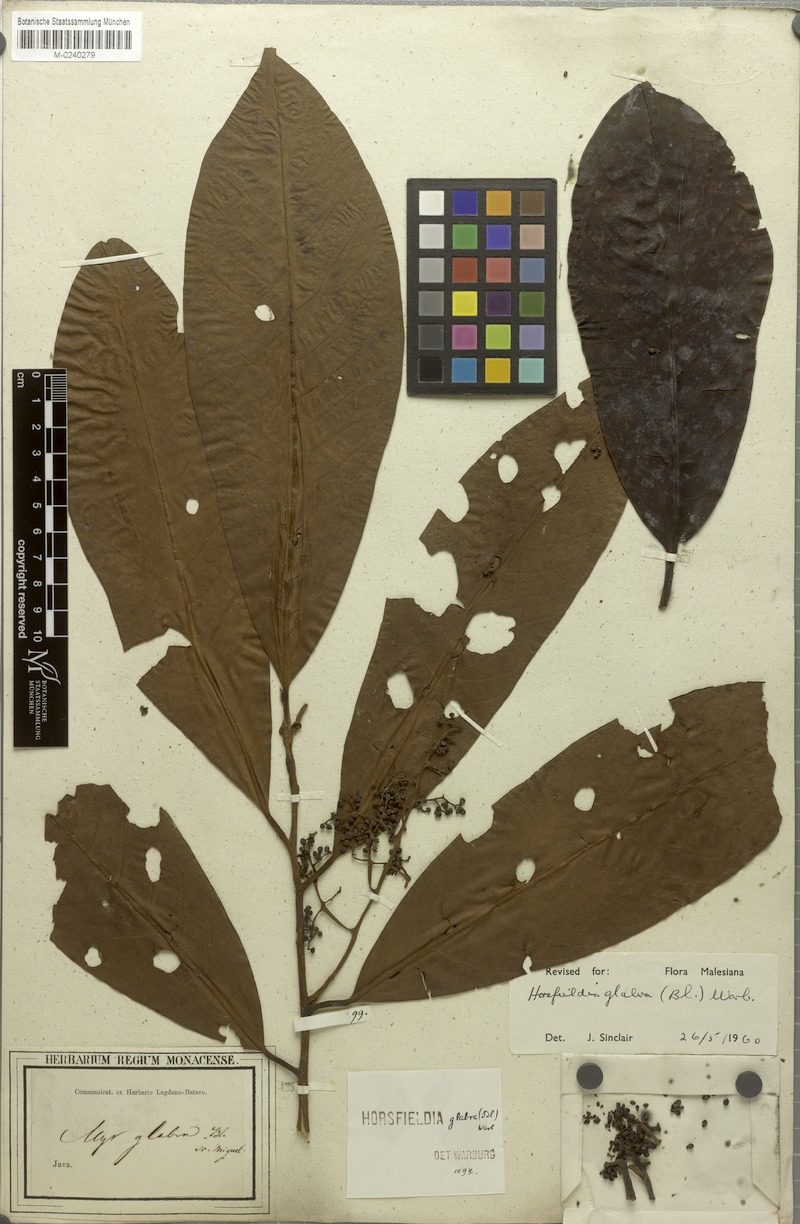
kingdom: Plantae
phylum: Tracheophyta
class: Magnoliopsida
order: Magnoliales
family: Myristicaceae
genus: Horsfieldia
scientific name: Horsfieldia glabra
